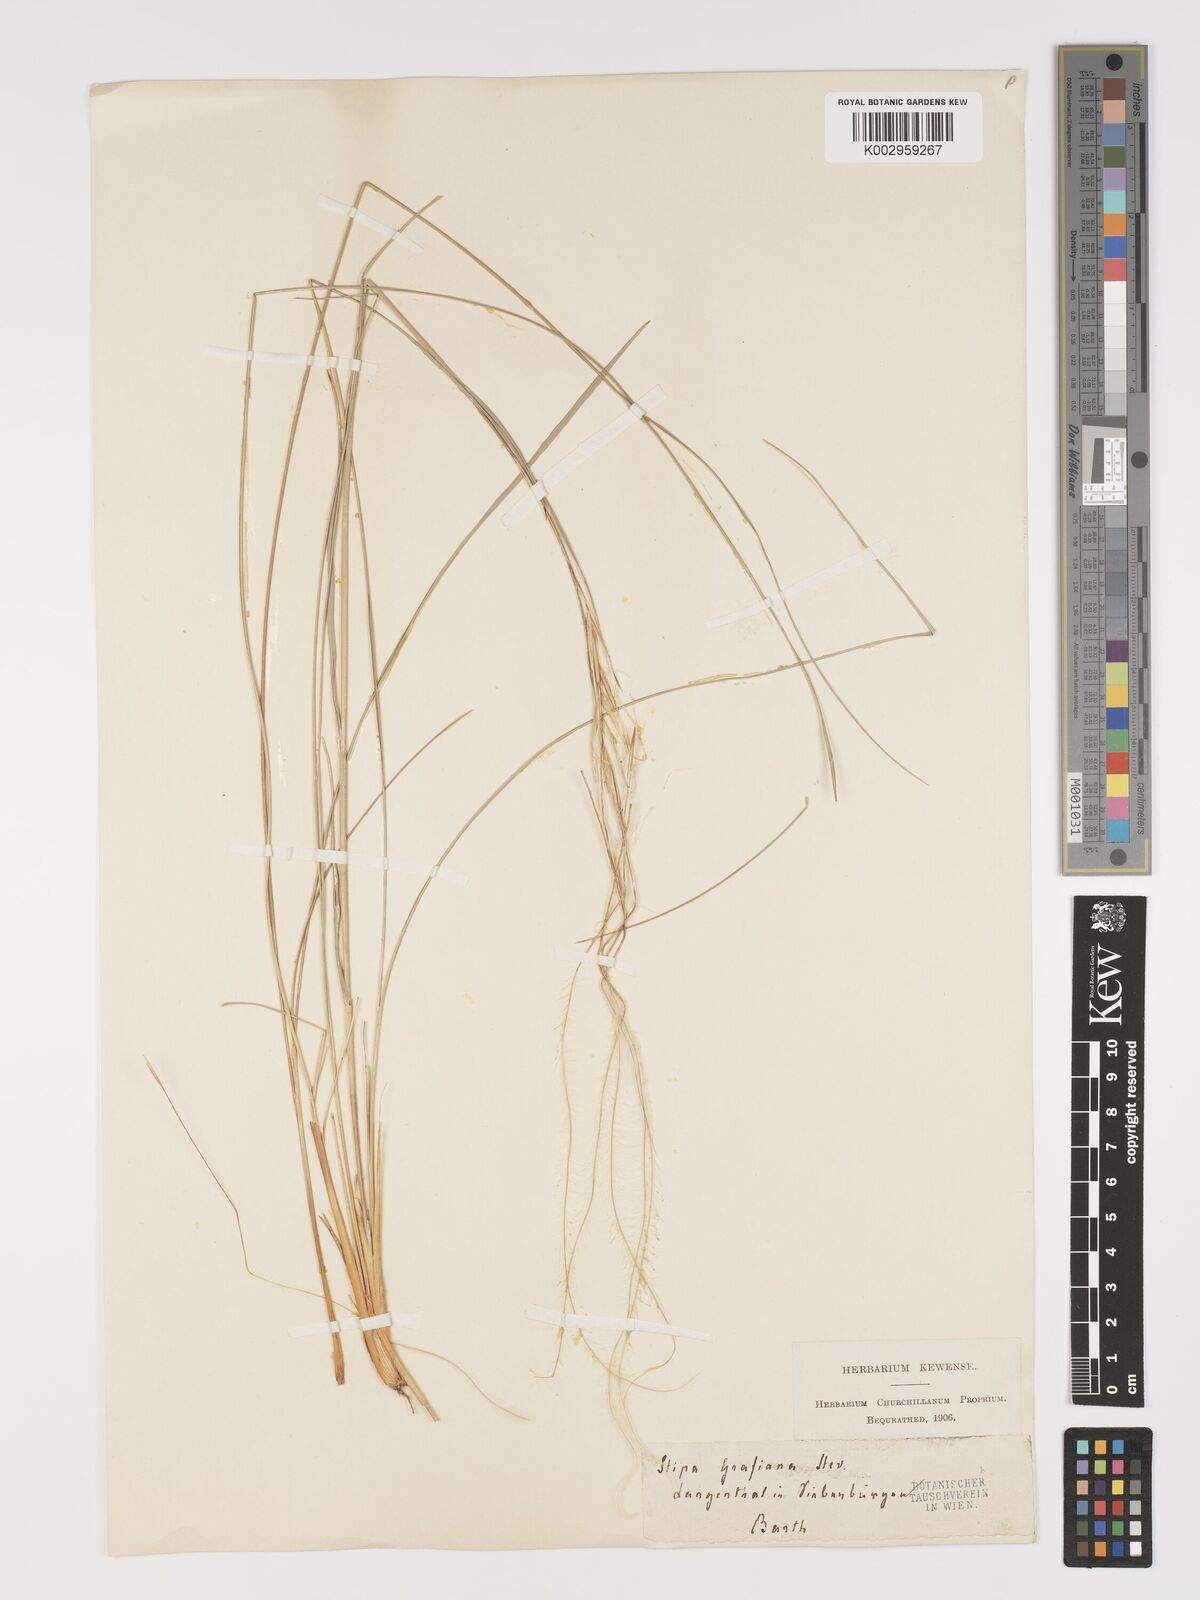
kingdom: Plantae
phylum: Tracheophyta
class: Liliopsida
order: Poales
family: Poaceae
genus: Stipa
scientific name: Stipa pulcherrima
